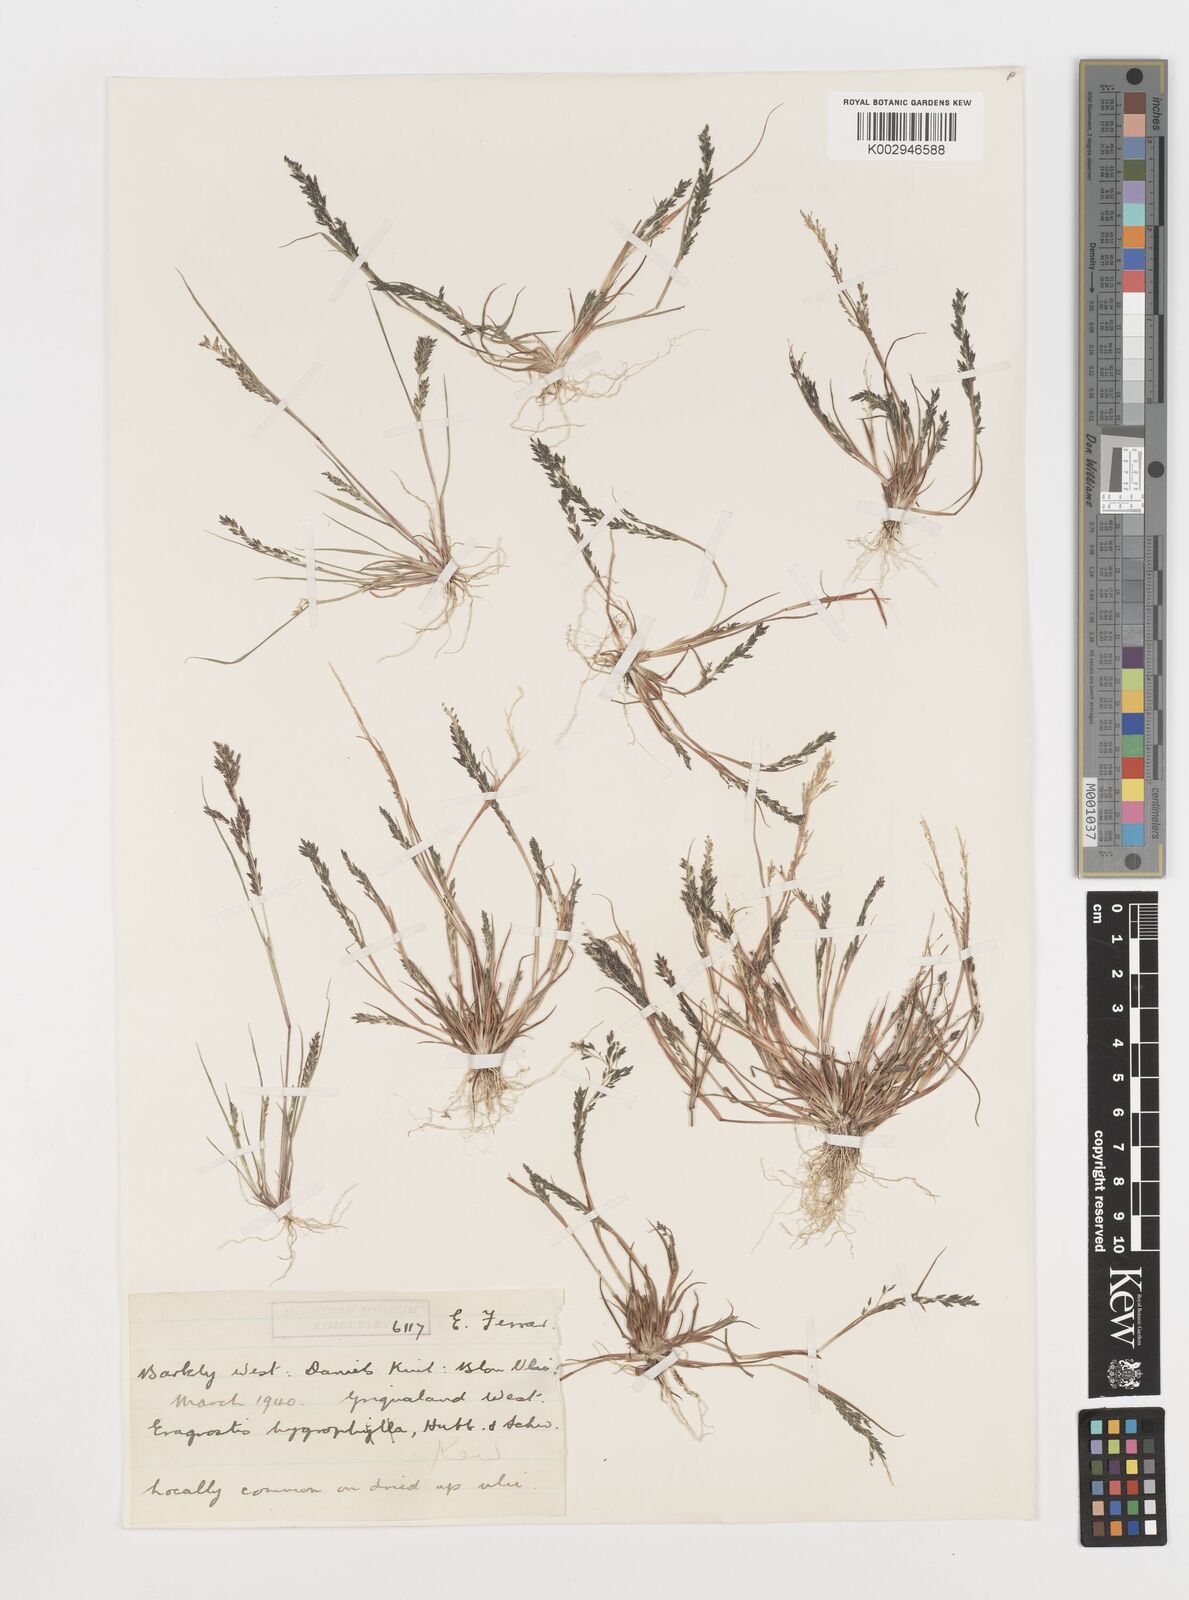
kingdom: Plantae
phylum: Tracheophyta
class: Liliopsida
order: Poales
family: Poaceae
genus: Eragrostis
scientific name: Eragrostis homomalla
